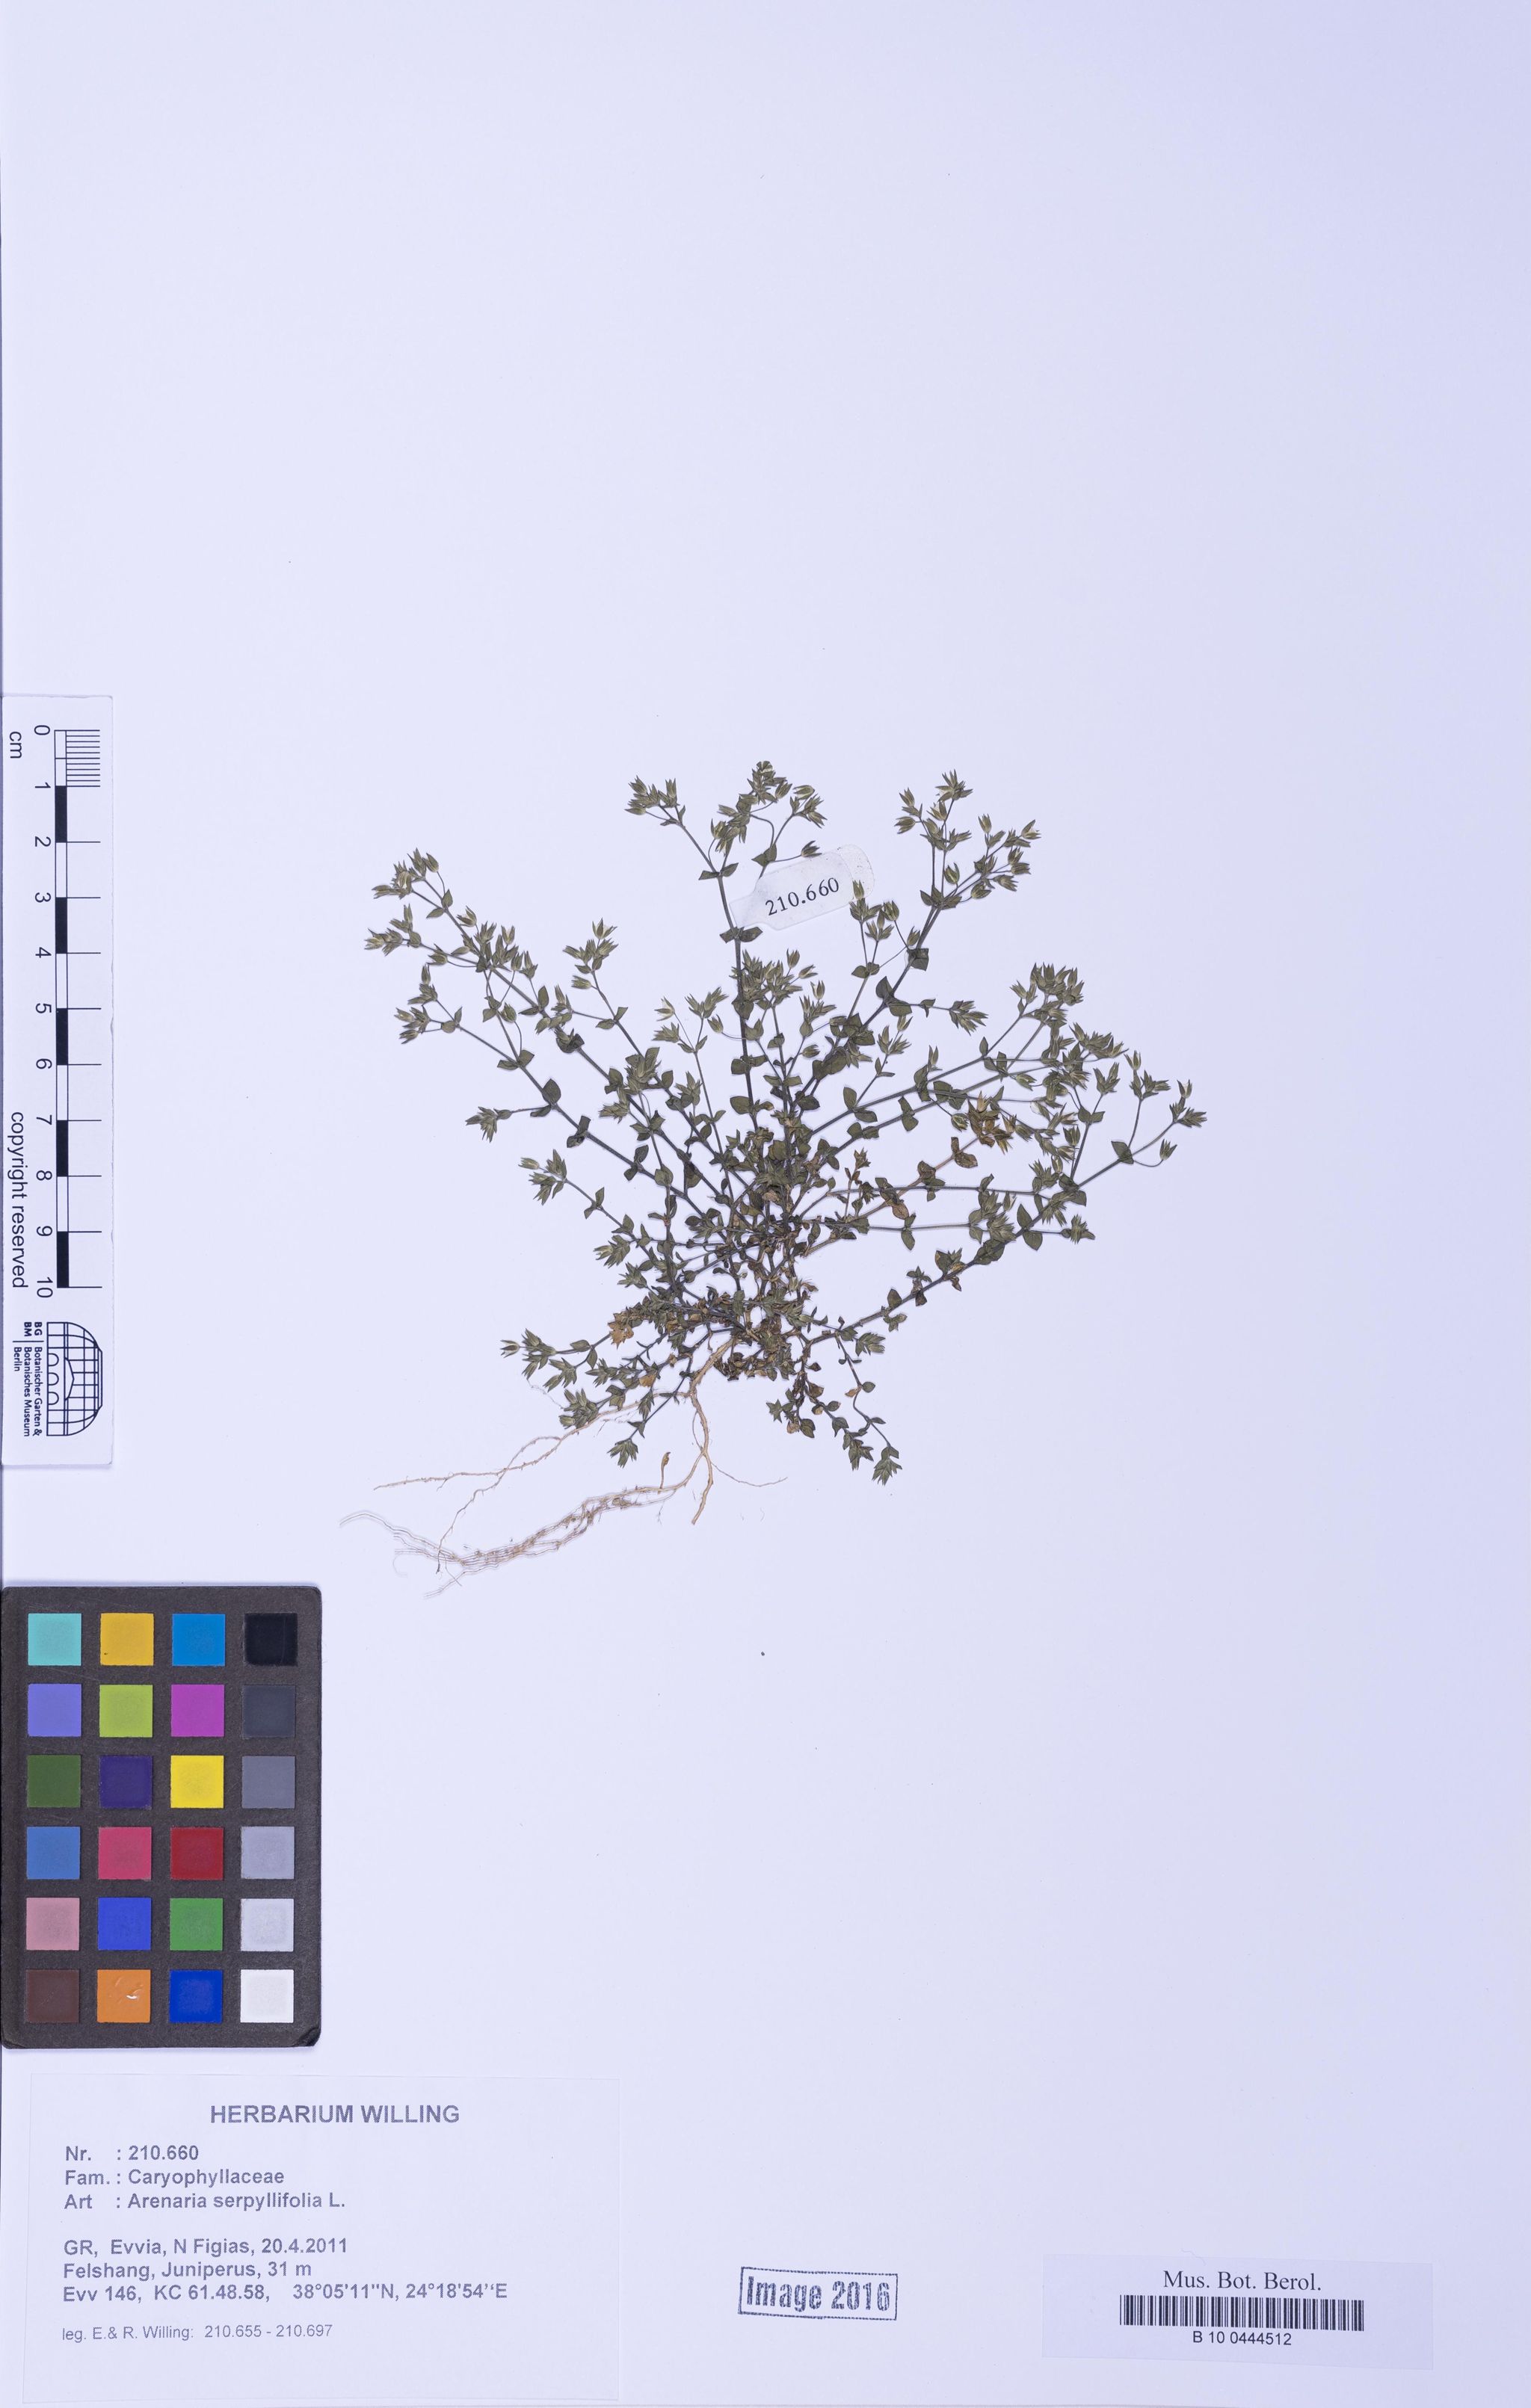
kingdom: Plantae
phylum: Tracheophyta
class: Magnoliopsida
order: Caryophyllales
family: Caryophyllaceae
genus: Arenaria
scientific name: Arenaria serpyllifolia
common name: Thyme-leaved sandwort
